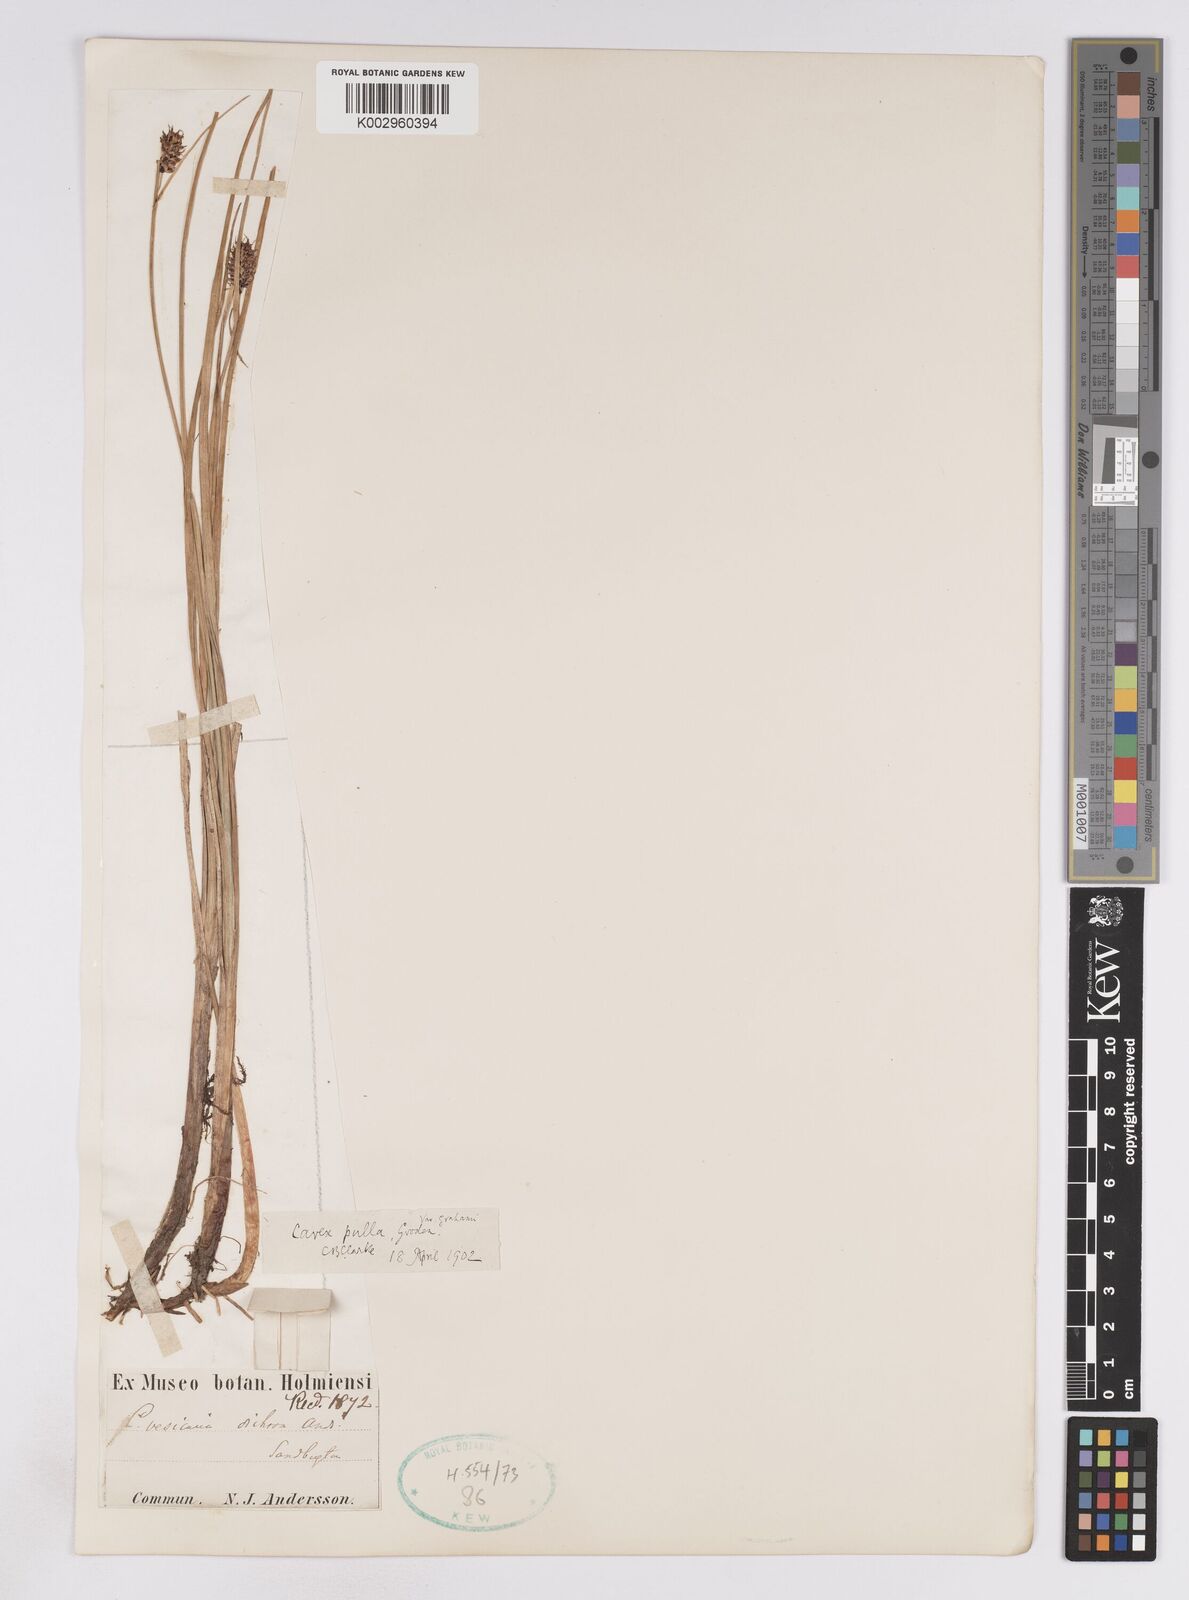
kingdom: Plantae
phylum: Tracheophyta
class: Liliopsida
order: Poales
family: Cyperaceae
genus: Carex
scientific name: Carex rostrata
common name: Bottle sedge
